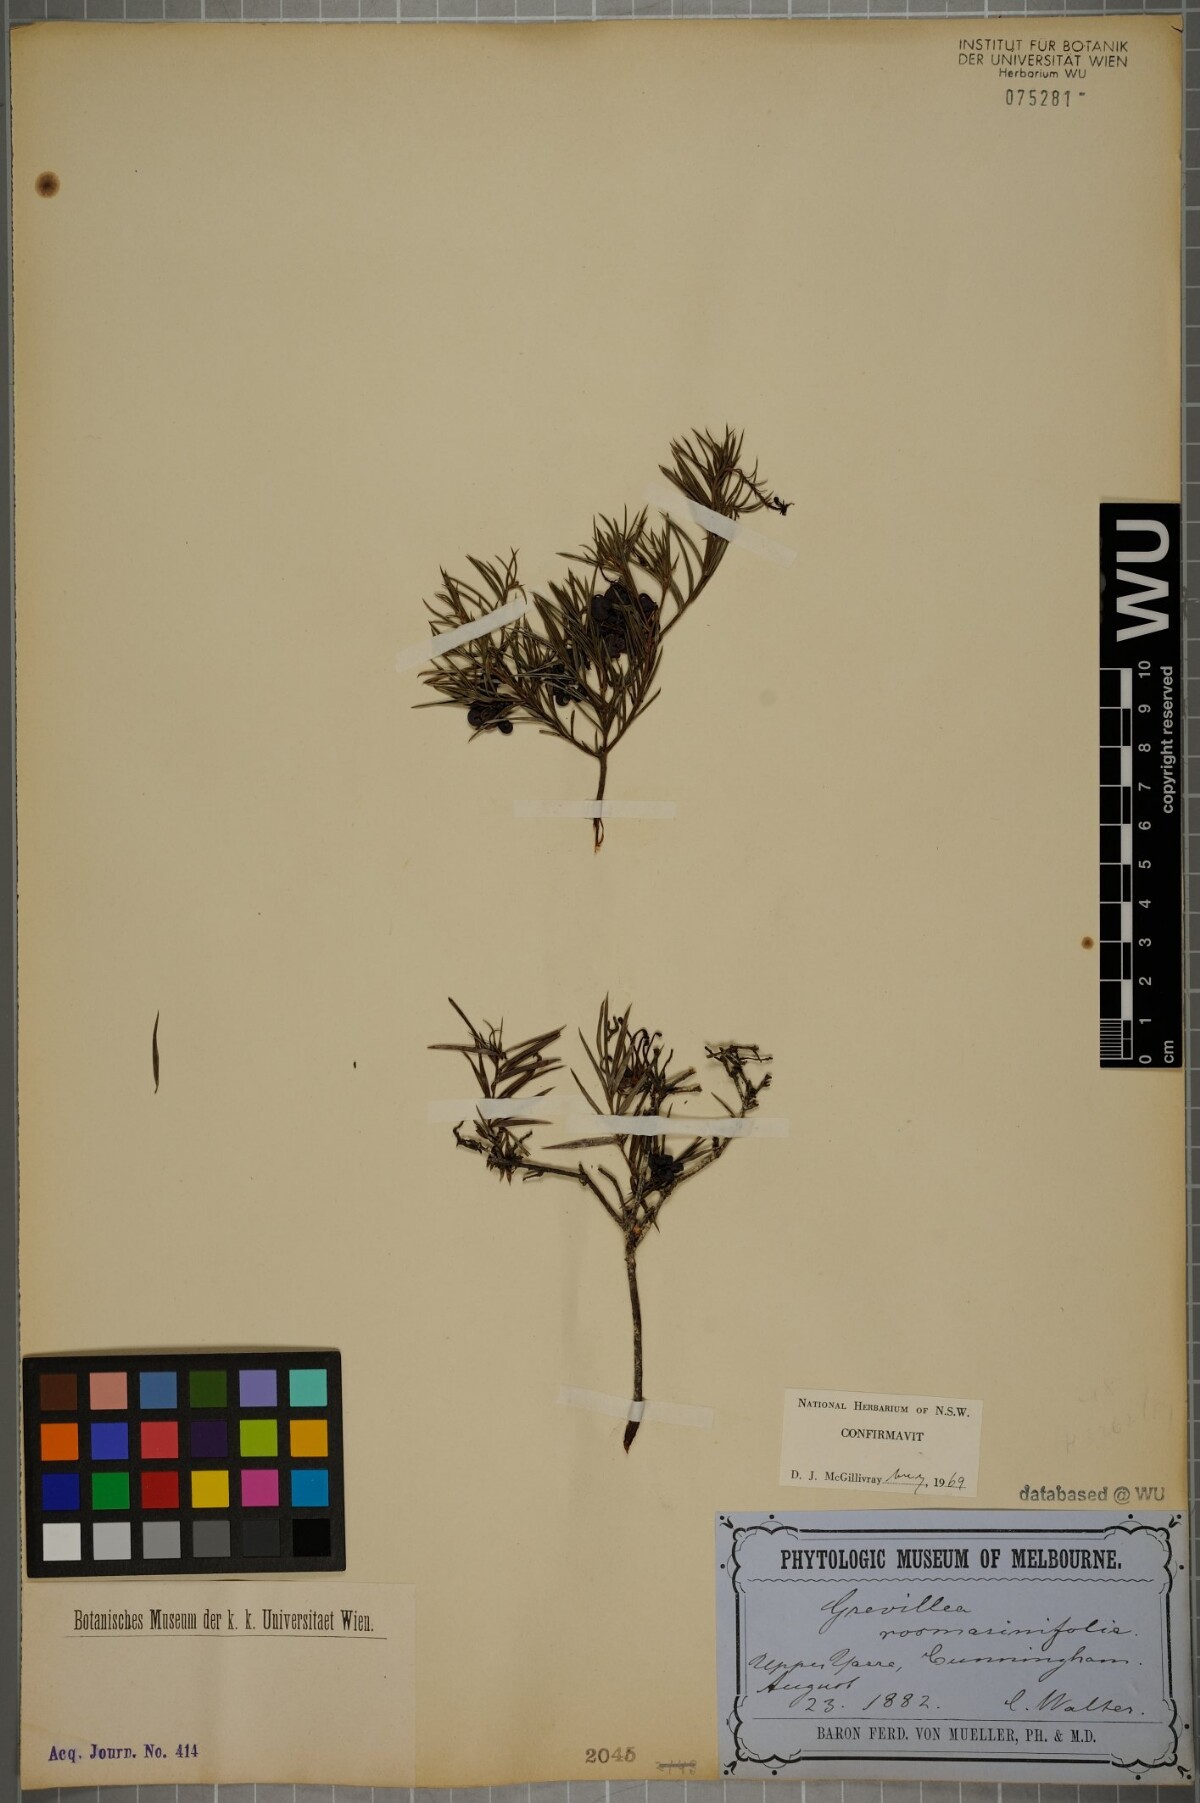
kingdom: Plantae
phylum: Tracheophyta
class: Magnoliopsida
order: Proteales
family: Proteaceae
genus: Grevillea
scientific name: Grevillea rosmarinifolia
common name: Rosemary grevillea
